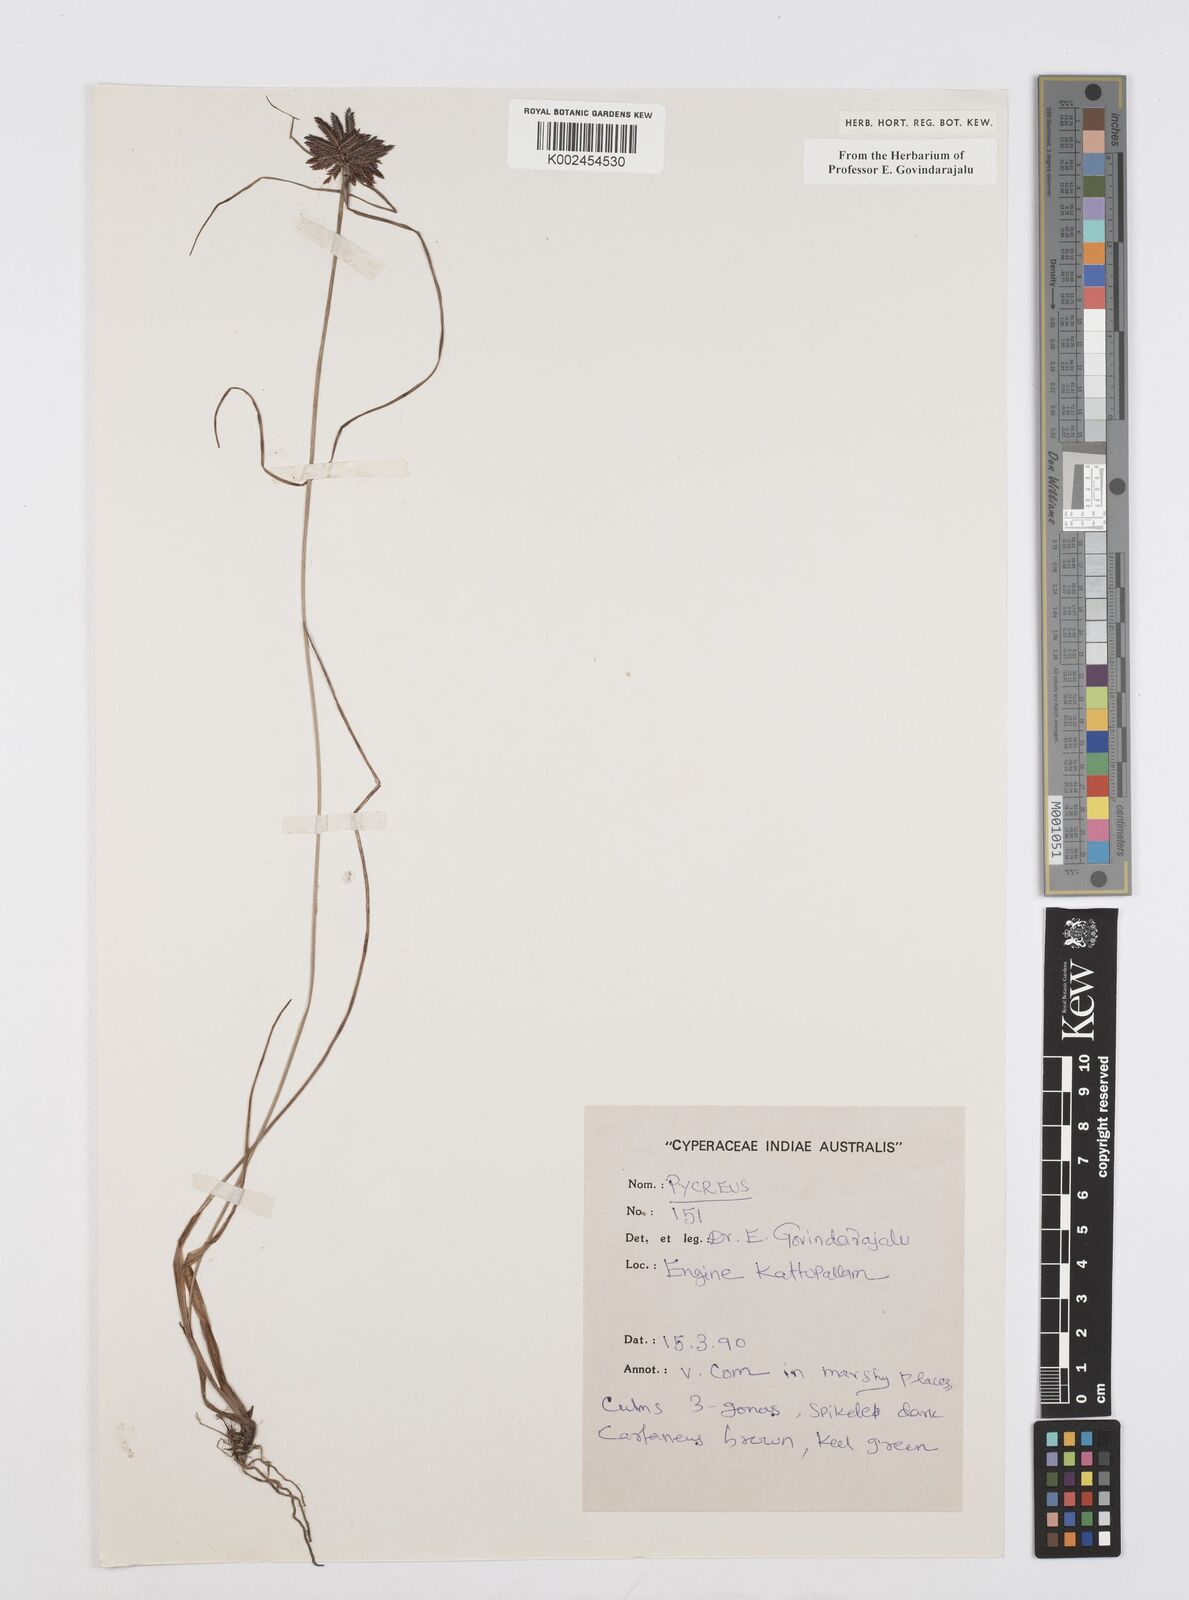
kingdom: Plantae
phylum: Tracheophyta
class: Liliopsida
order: Poales
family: Cyperaceae
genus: Cyperus
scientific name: Cyperus
